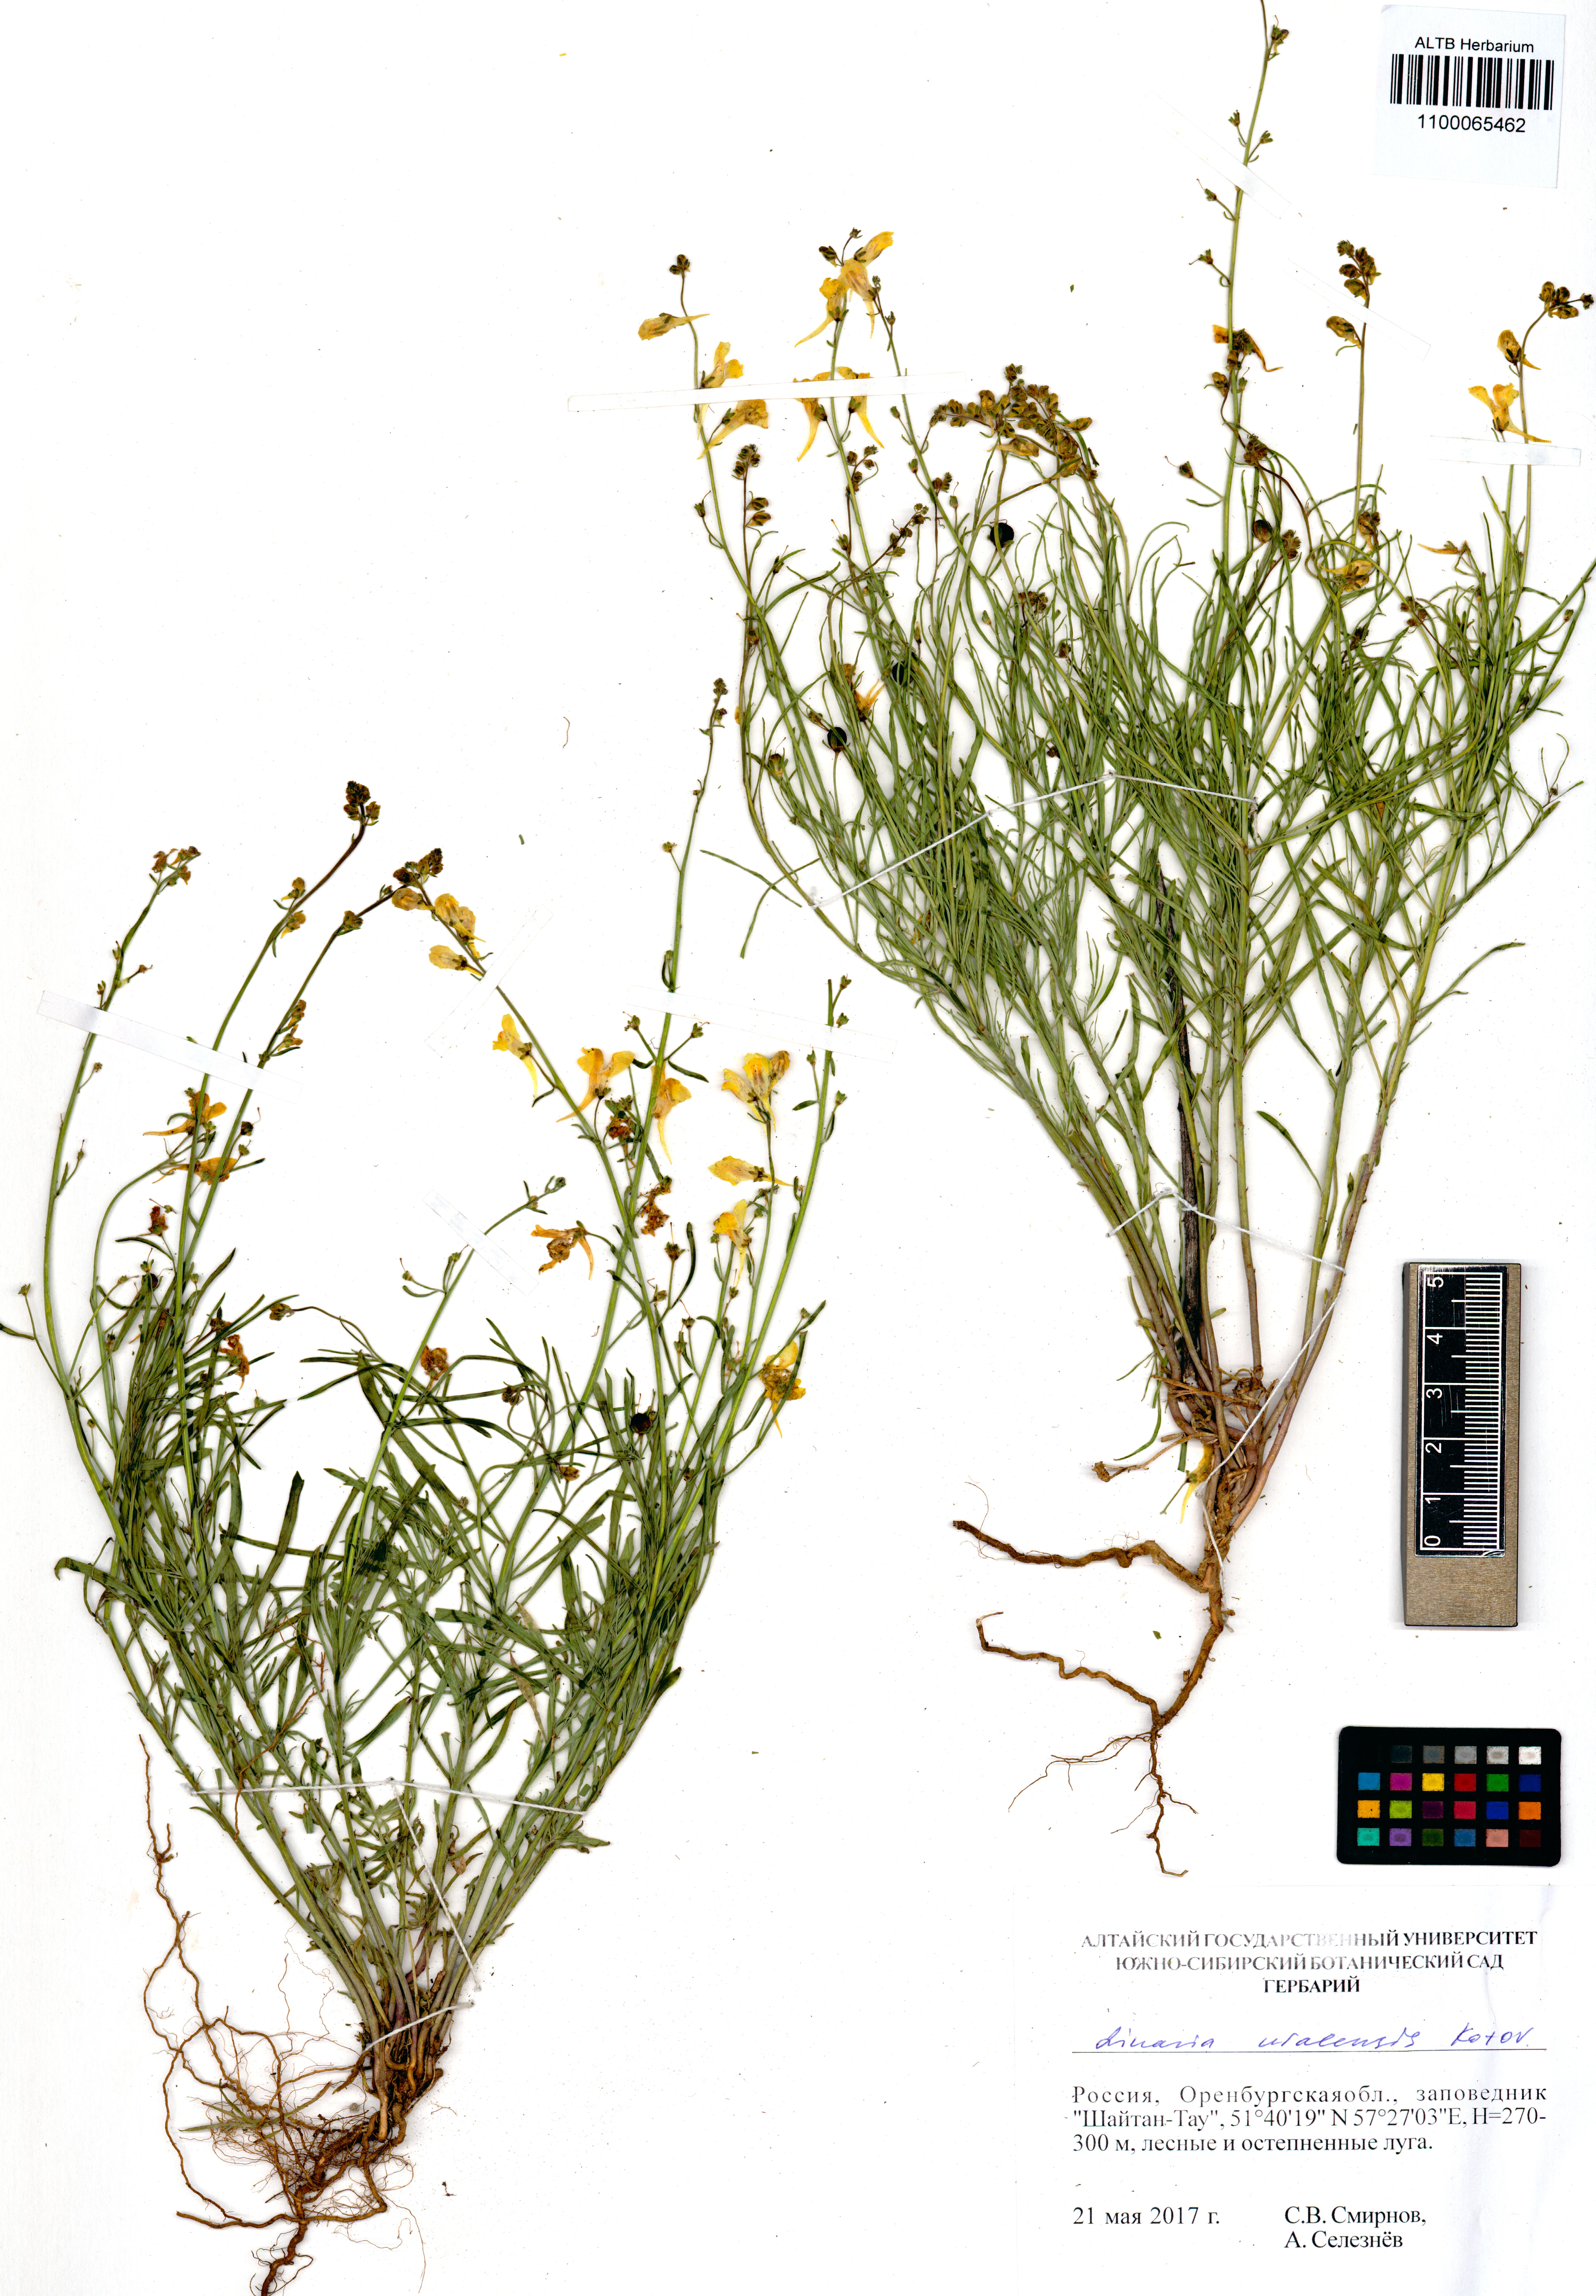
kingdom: Plantae
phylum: Tracheophyta
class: Magnoliopsida
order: Lamiales
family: Plantaginaceae
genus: Linaria
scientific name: Linaria odora
